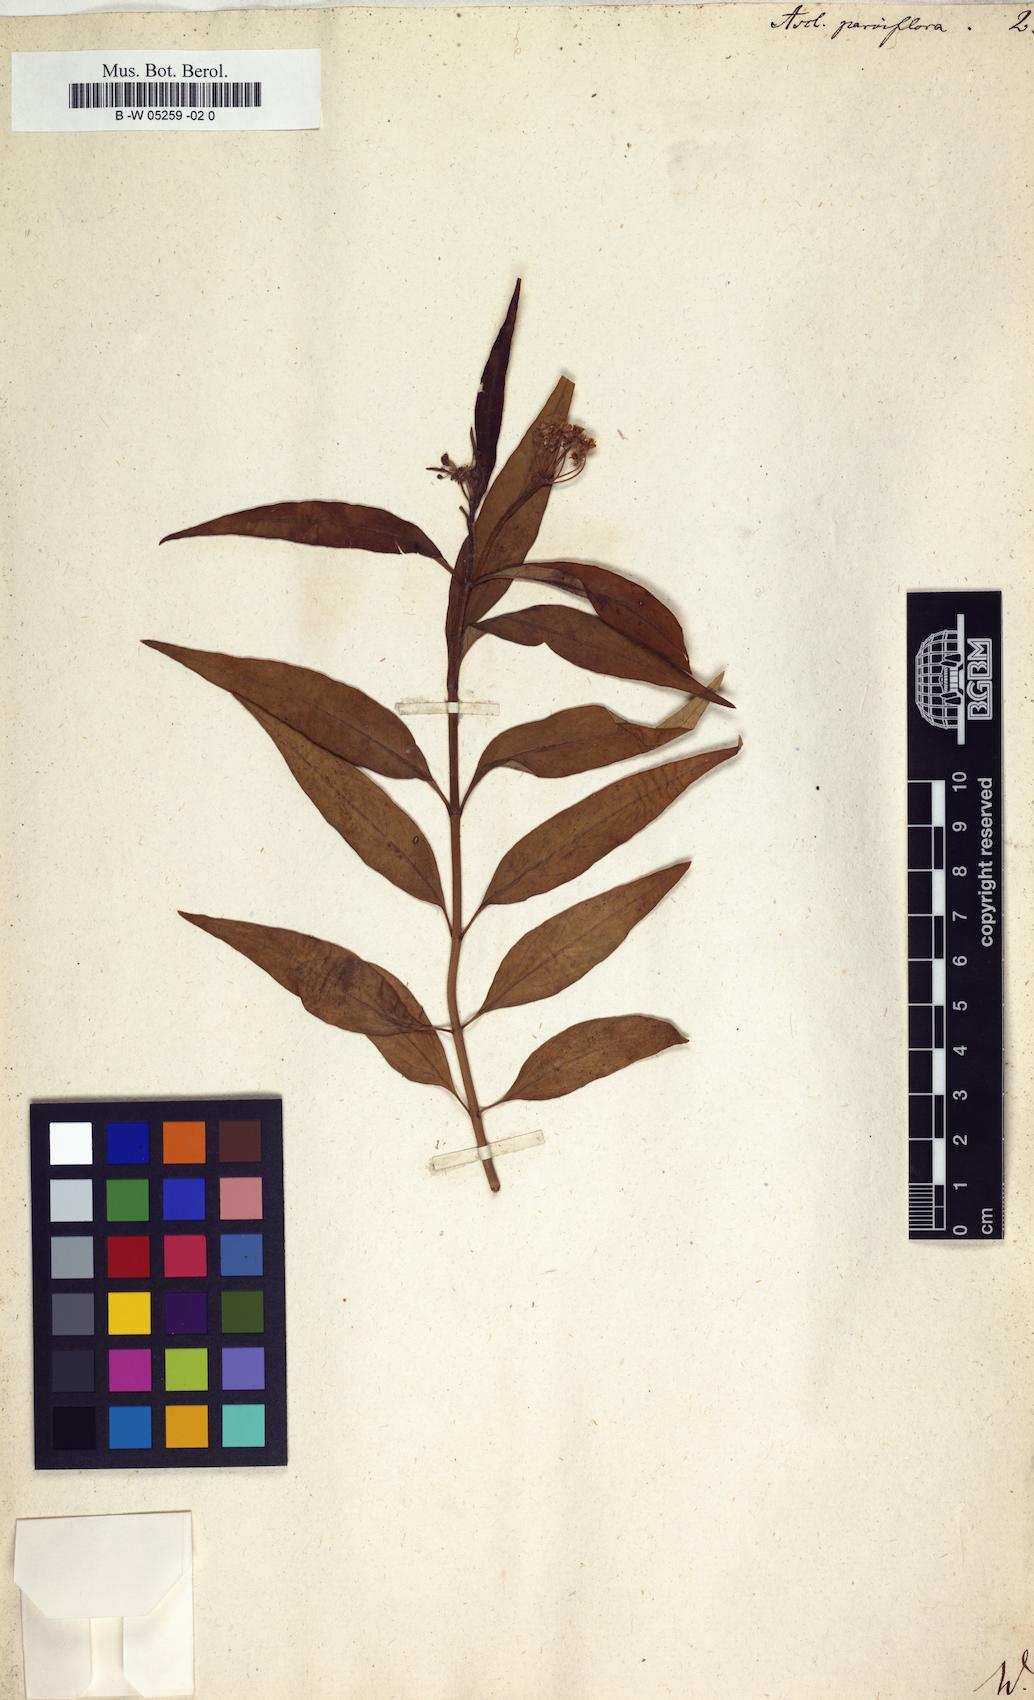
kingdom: Plantae
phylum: Tracheophyta
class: Magnoliopsida
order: Gentianales
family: Apocynaceae
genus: Asclepias
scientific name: Asclepias perennis
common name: Smooth-seed milkweed
